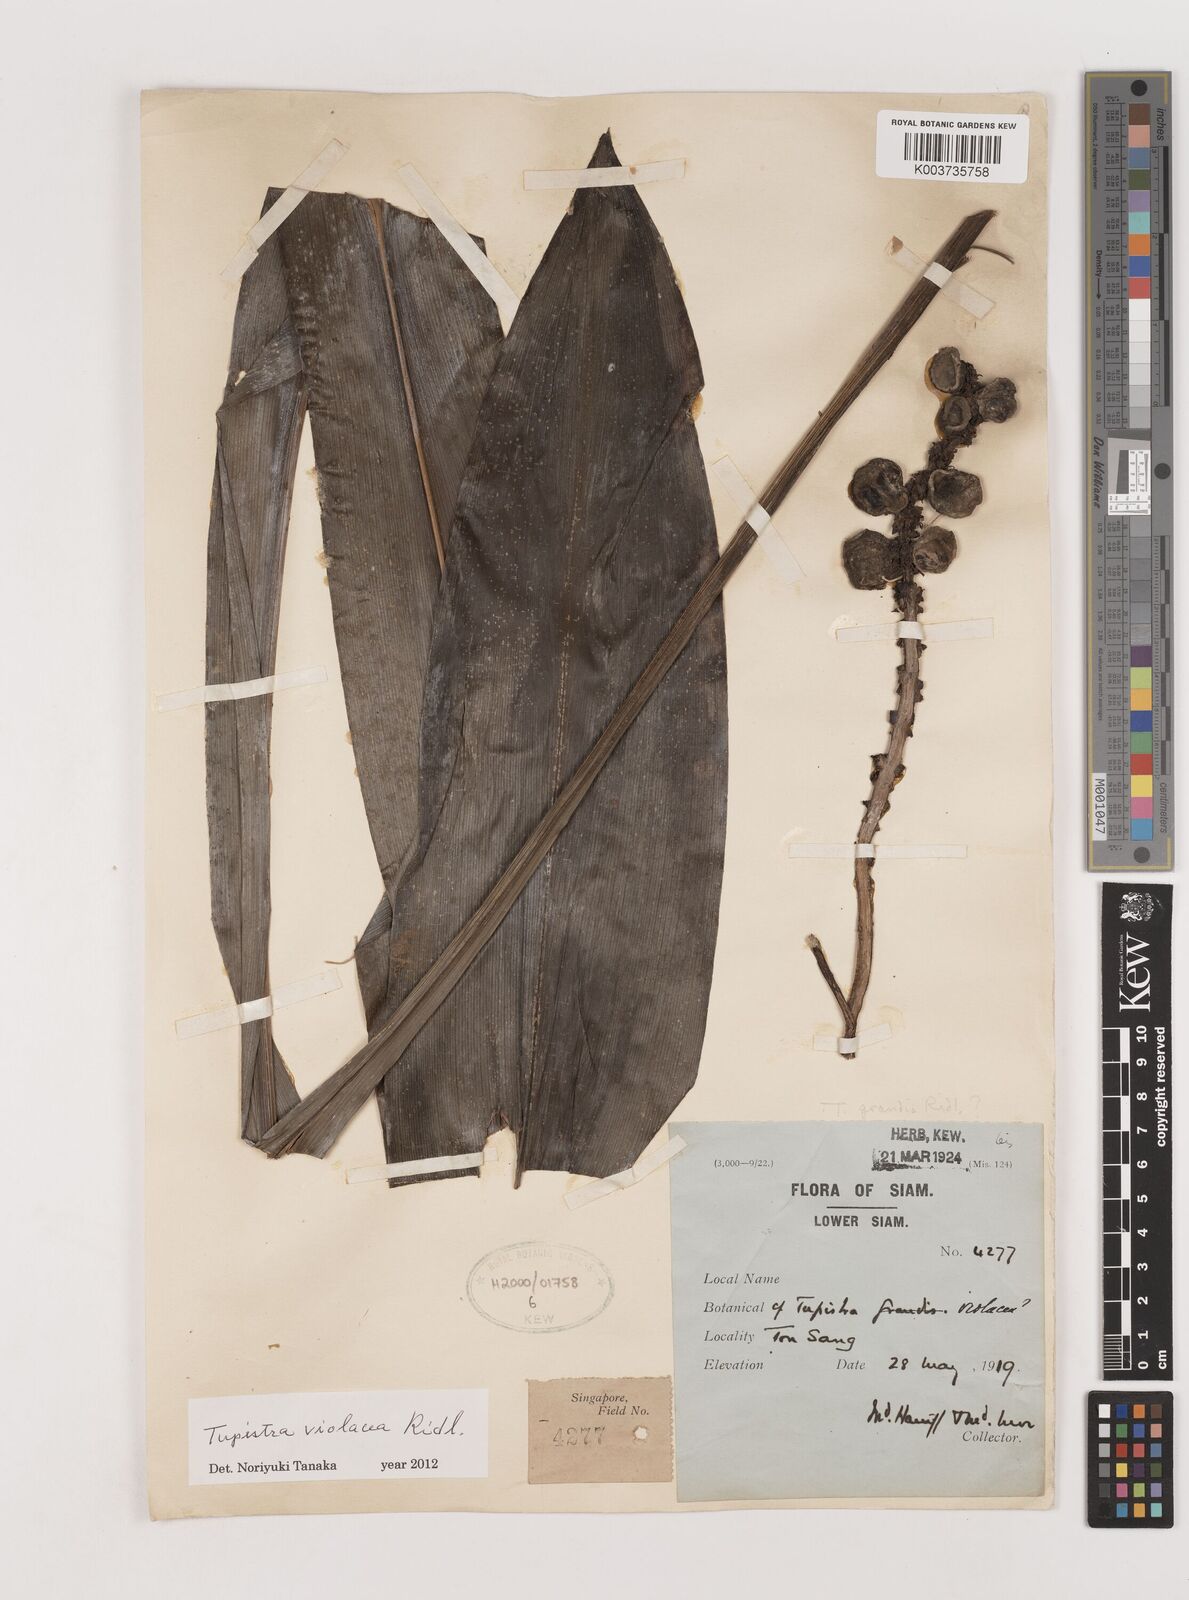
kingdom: Plantae
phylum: Tracheophyta
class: Liliopsida
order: Asparagales
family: Asparagaceae
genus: Tupistra
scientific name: Tupistra violacea
